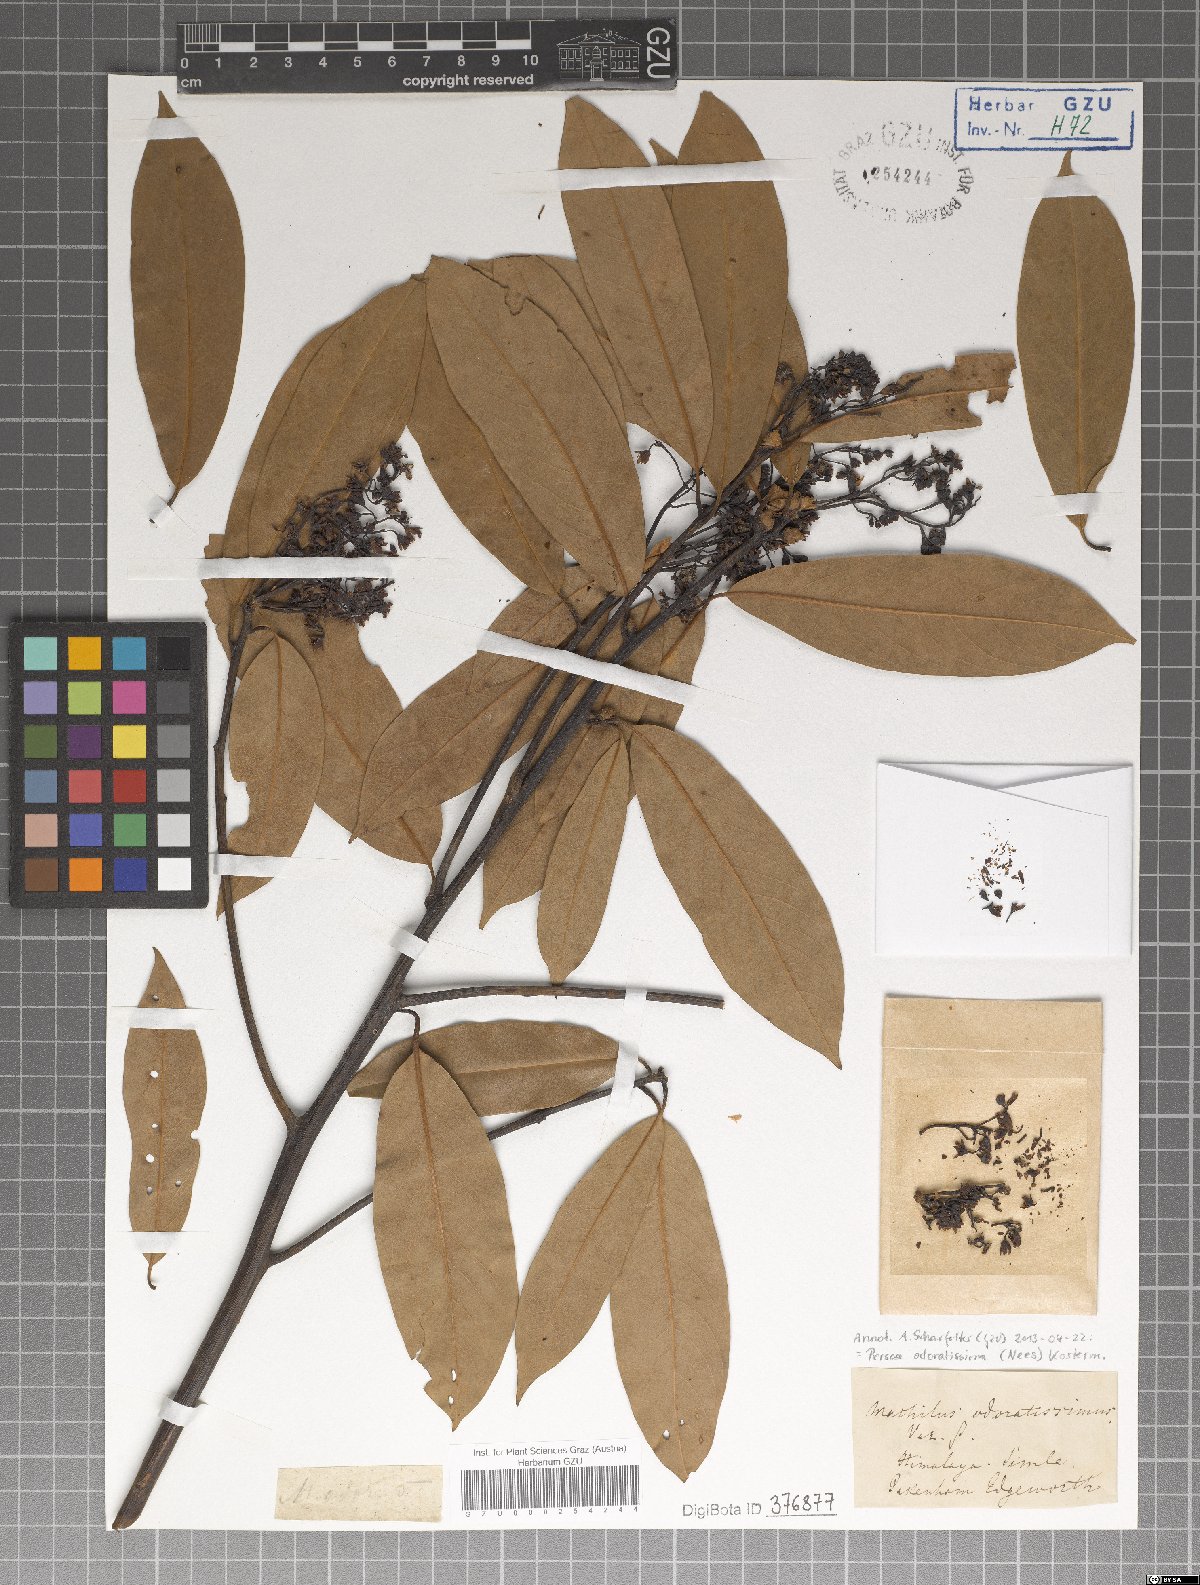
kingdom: Plantae
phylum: Tracheophyta
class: Magnoliopsida
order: Laurales
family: Lauraceae
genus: Machilus
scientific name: Machilus odoratissimus
